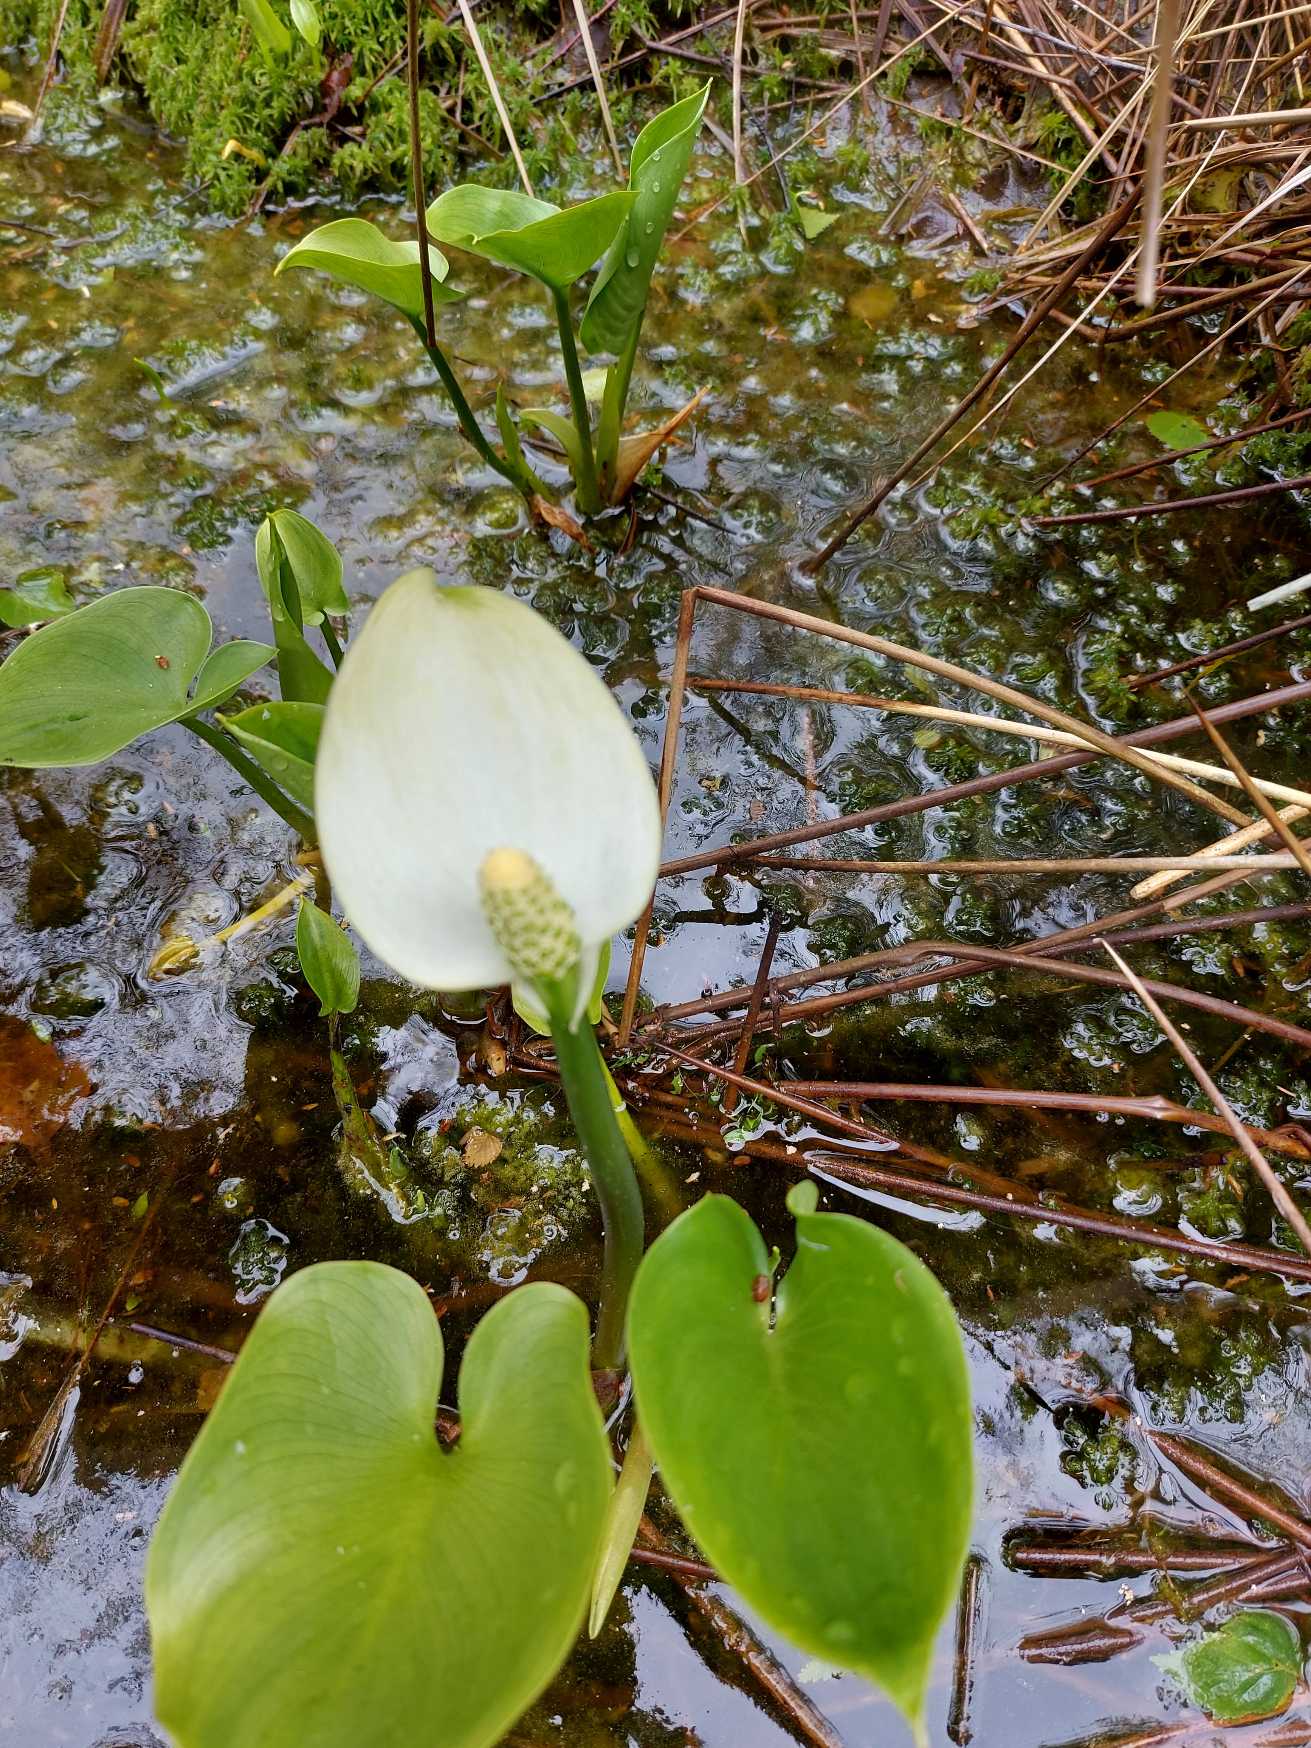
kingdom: Plantae
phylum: Tracheophyta
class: Liliopsida
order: Alismatales
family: Araceae
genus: Calla
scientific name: Calla palustris
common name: Kærmysse
